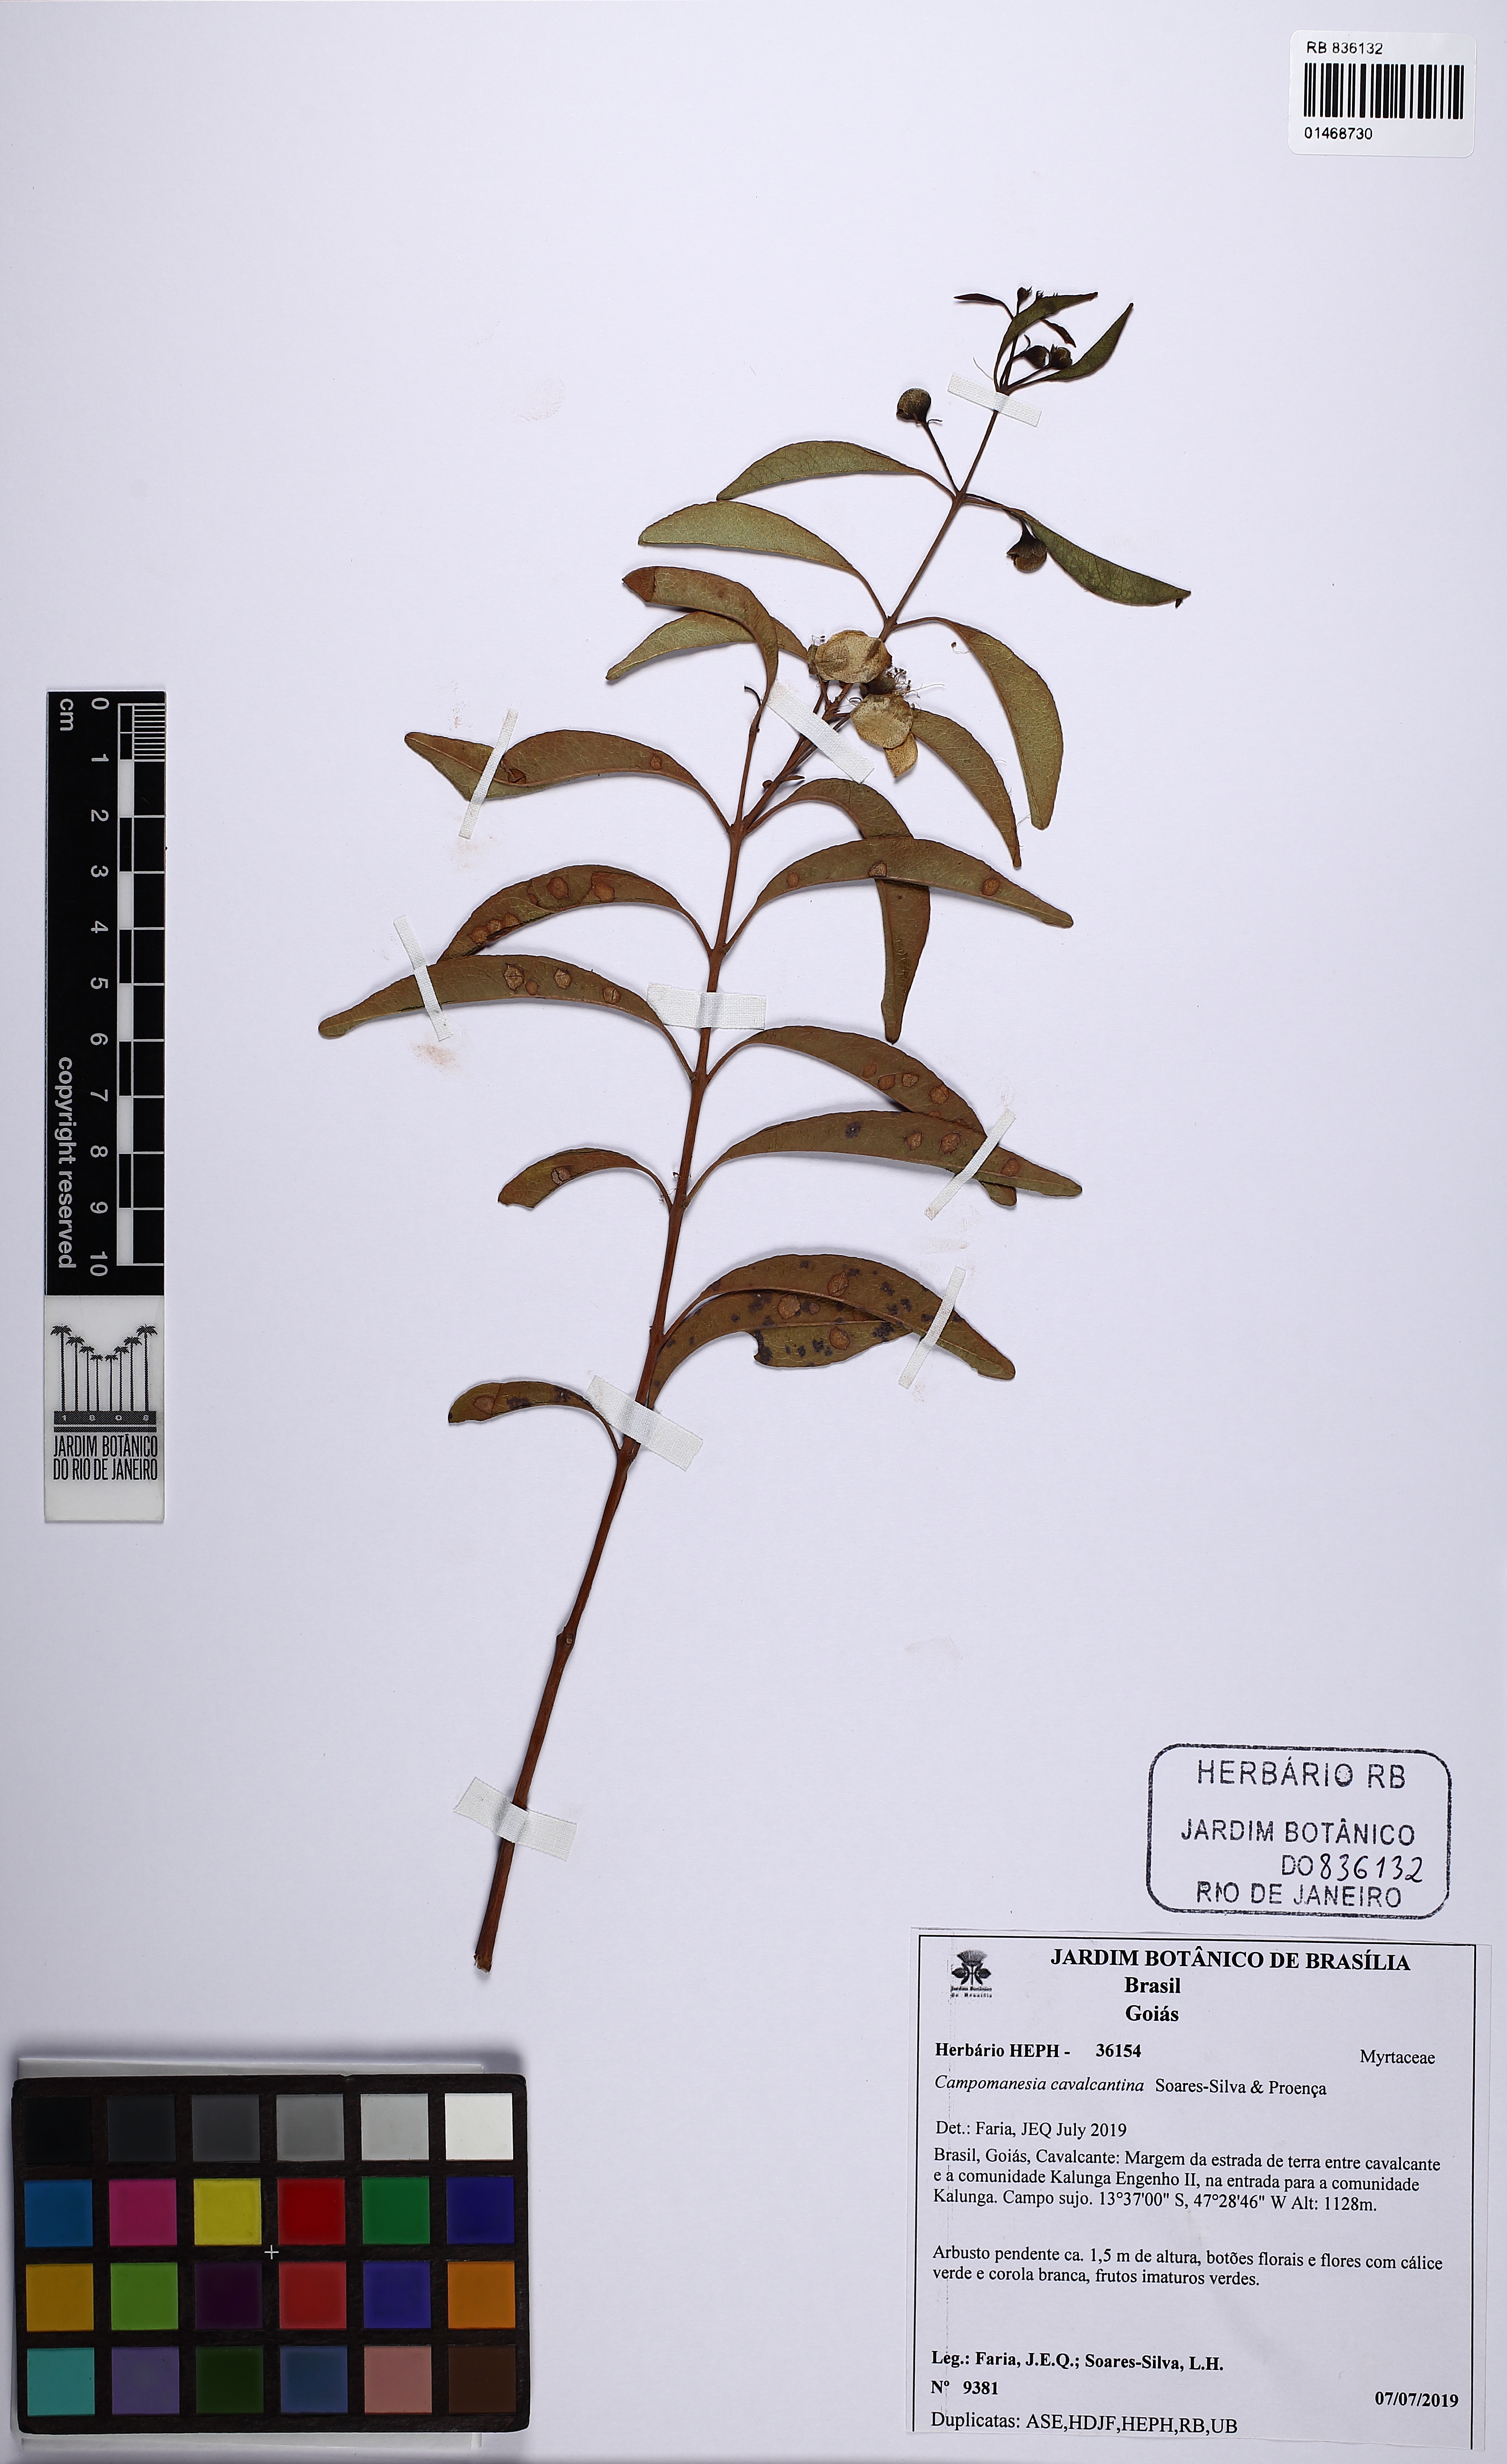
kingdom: Plantae
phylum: Tracheophyta
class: Magnoliopsida
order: Myrtales
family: Myrtaceae
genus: Campomanesia
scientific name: Campomanesia cavalcantina
